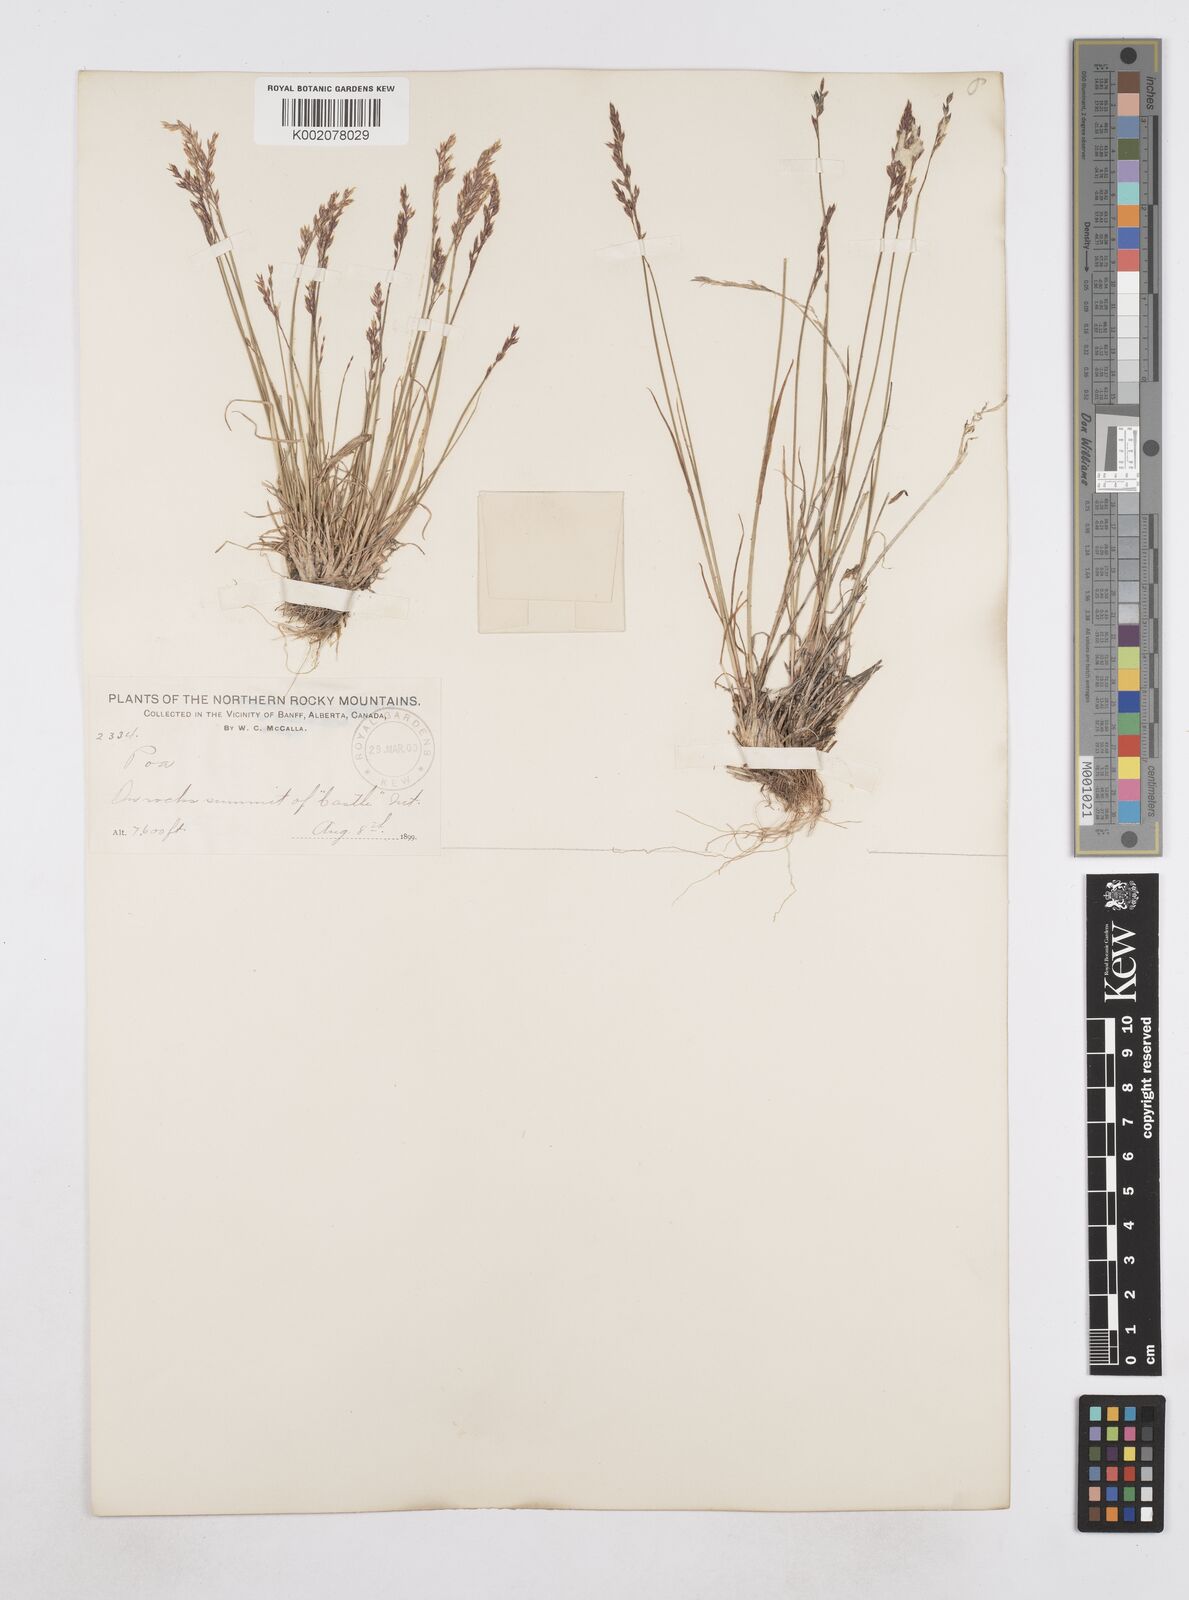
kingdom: Plantae
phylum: Tracheophyta
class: Liliopsida
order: Poales
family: Poaceae
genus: Poa
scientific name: Poa
